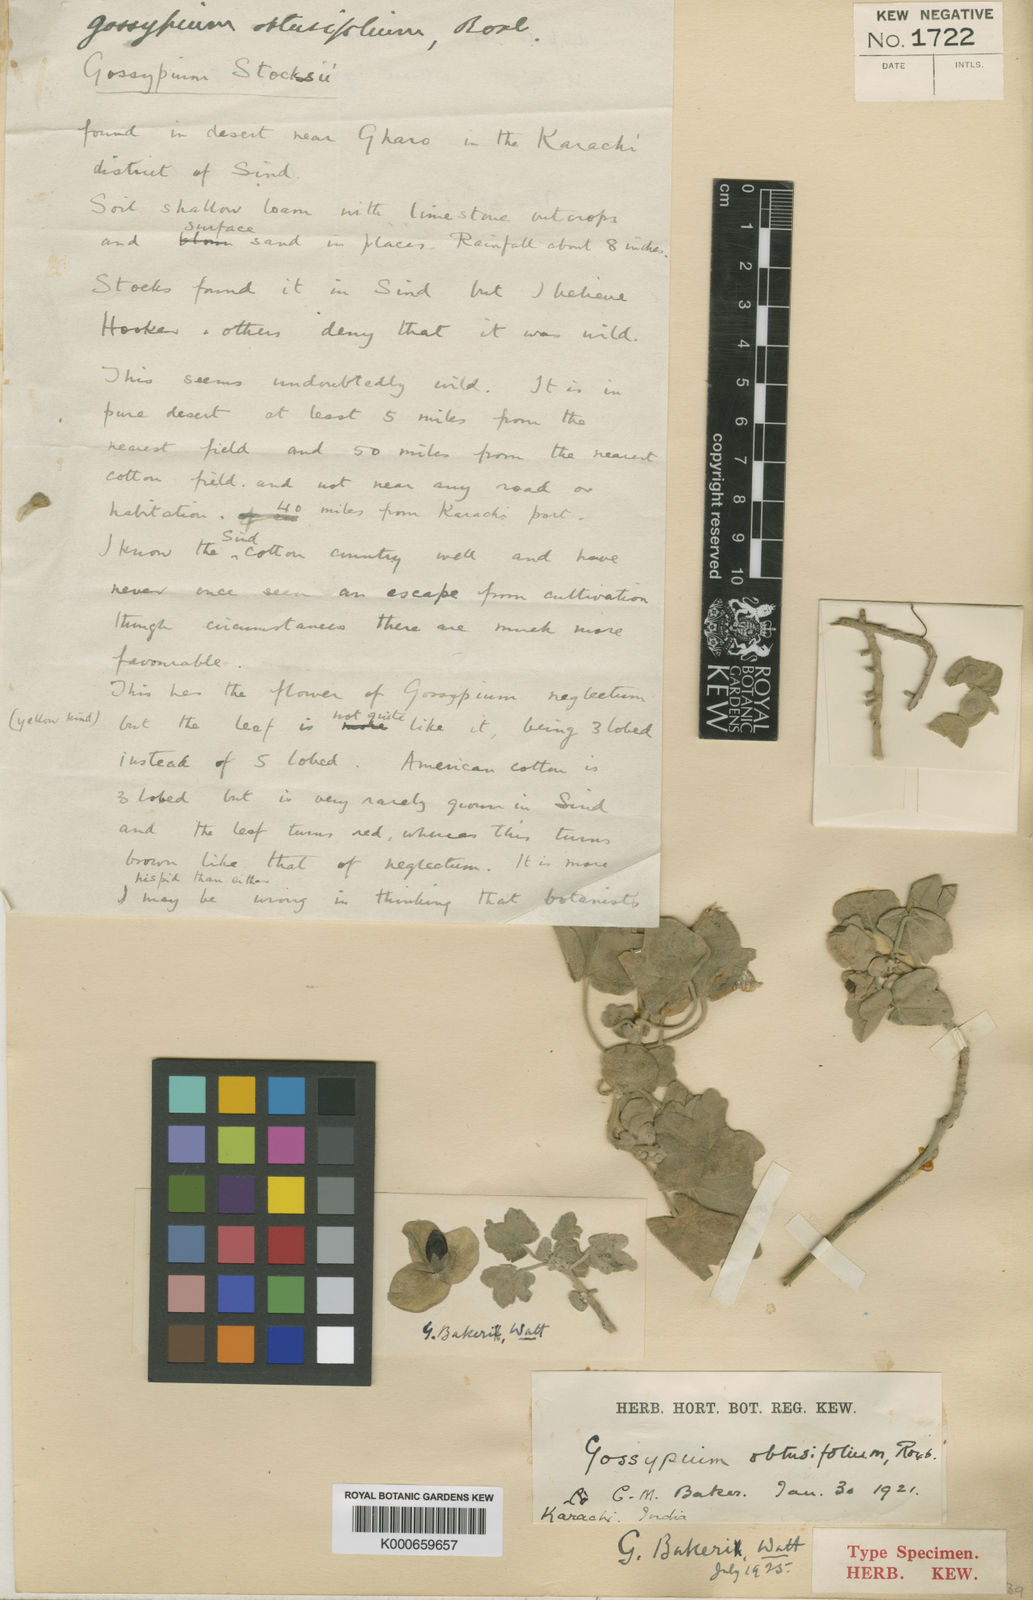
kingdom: Plantae
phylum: Tracheophyta
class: Magnoliopsida
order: Malvales
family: Malvaceae
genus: Senra
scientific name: Senra incana
